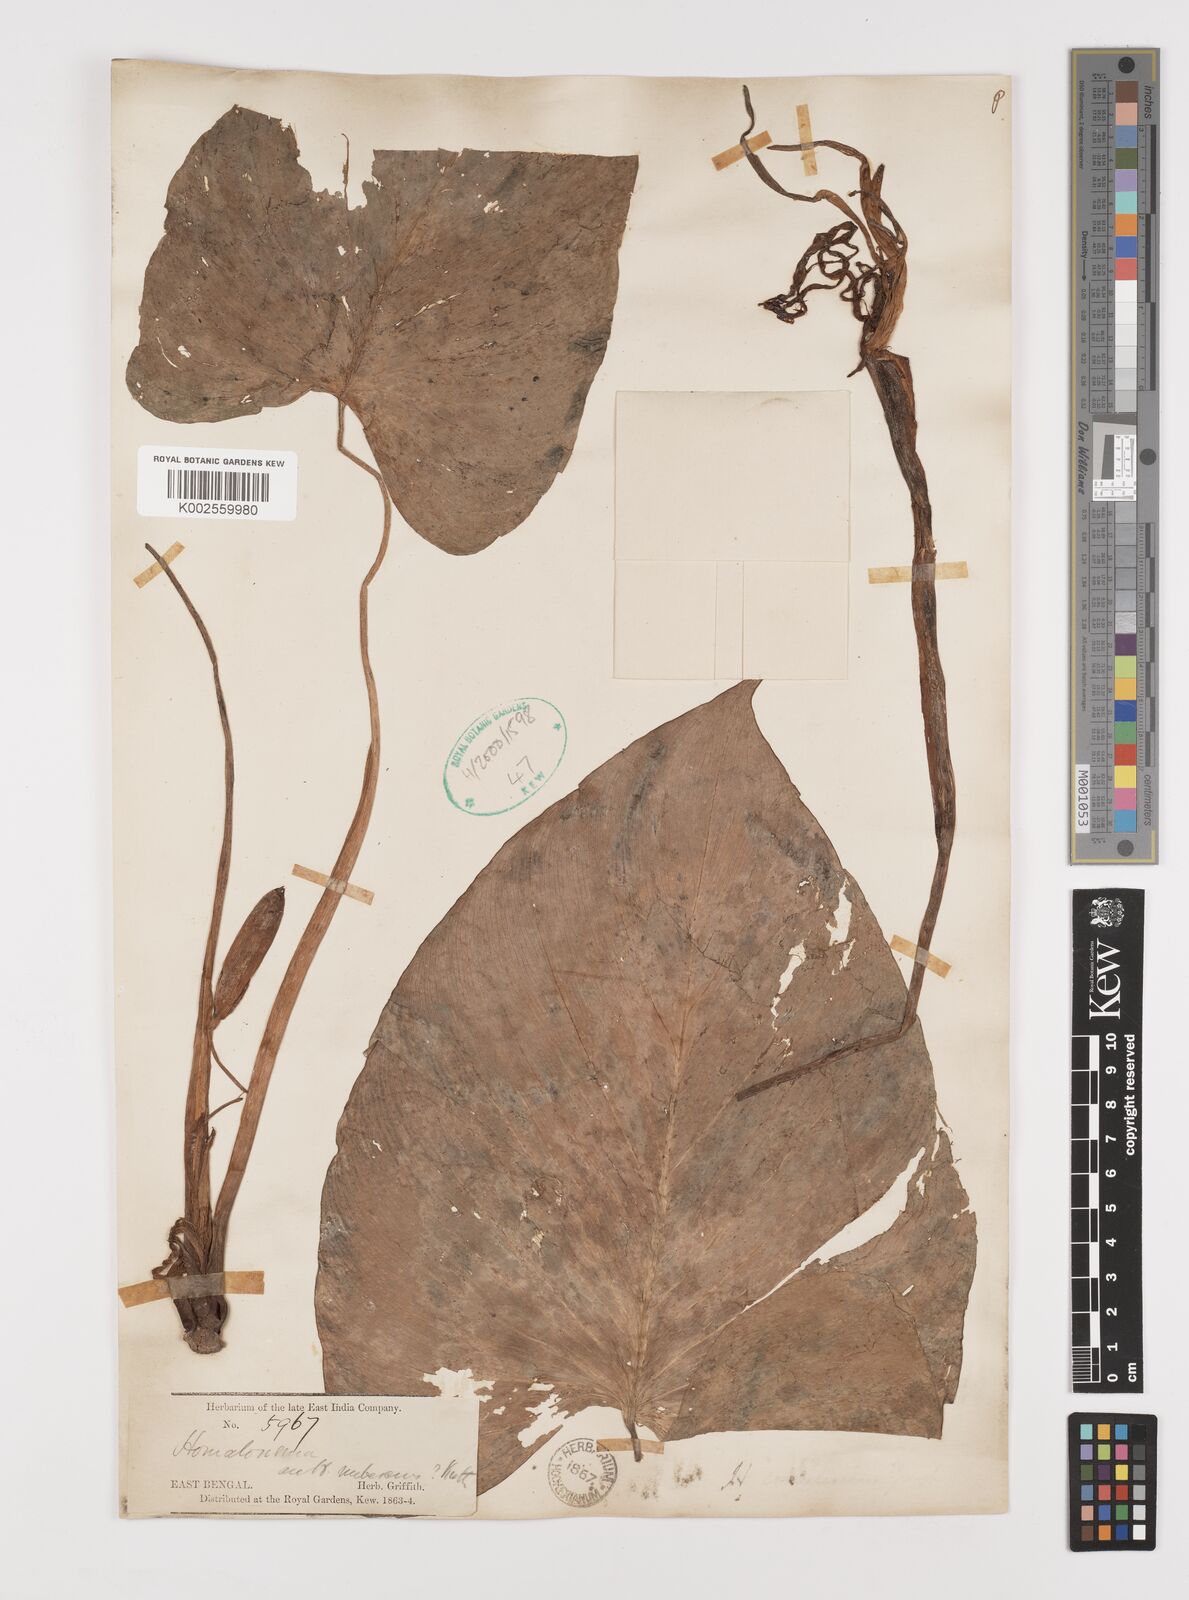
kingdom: Plantae
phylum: Tracheophyta
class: Liliopsida
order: Alismatales
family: Araceae
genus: Homalomena
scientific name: Homalomena rubescens
